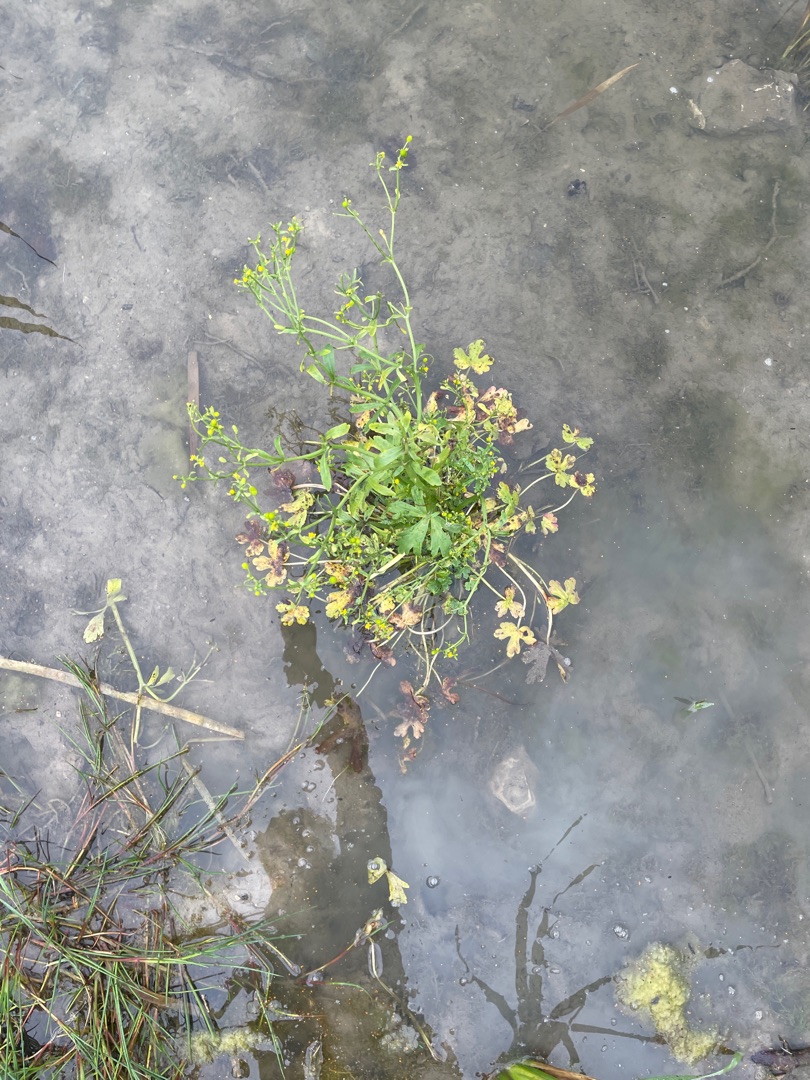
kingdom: Plantae
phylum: Tracheophyta
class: Magnoliopsida
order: Ranunculales
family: Ranunculaceae
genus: Ranunculus
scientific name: Ranunculus sceleratus
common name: Tigger-ranunkel
